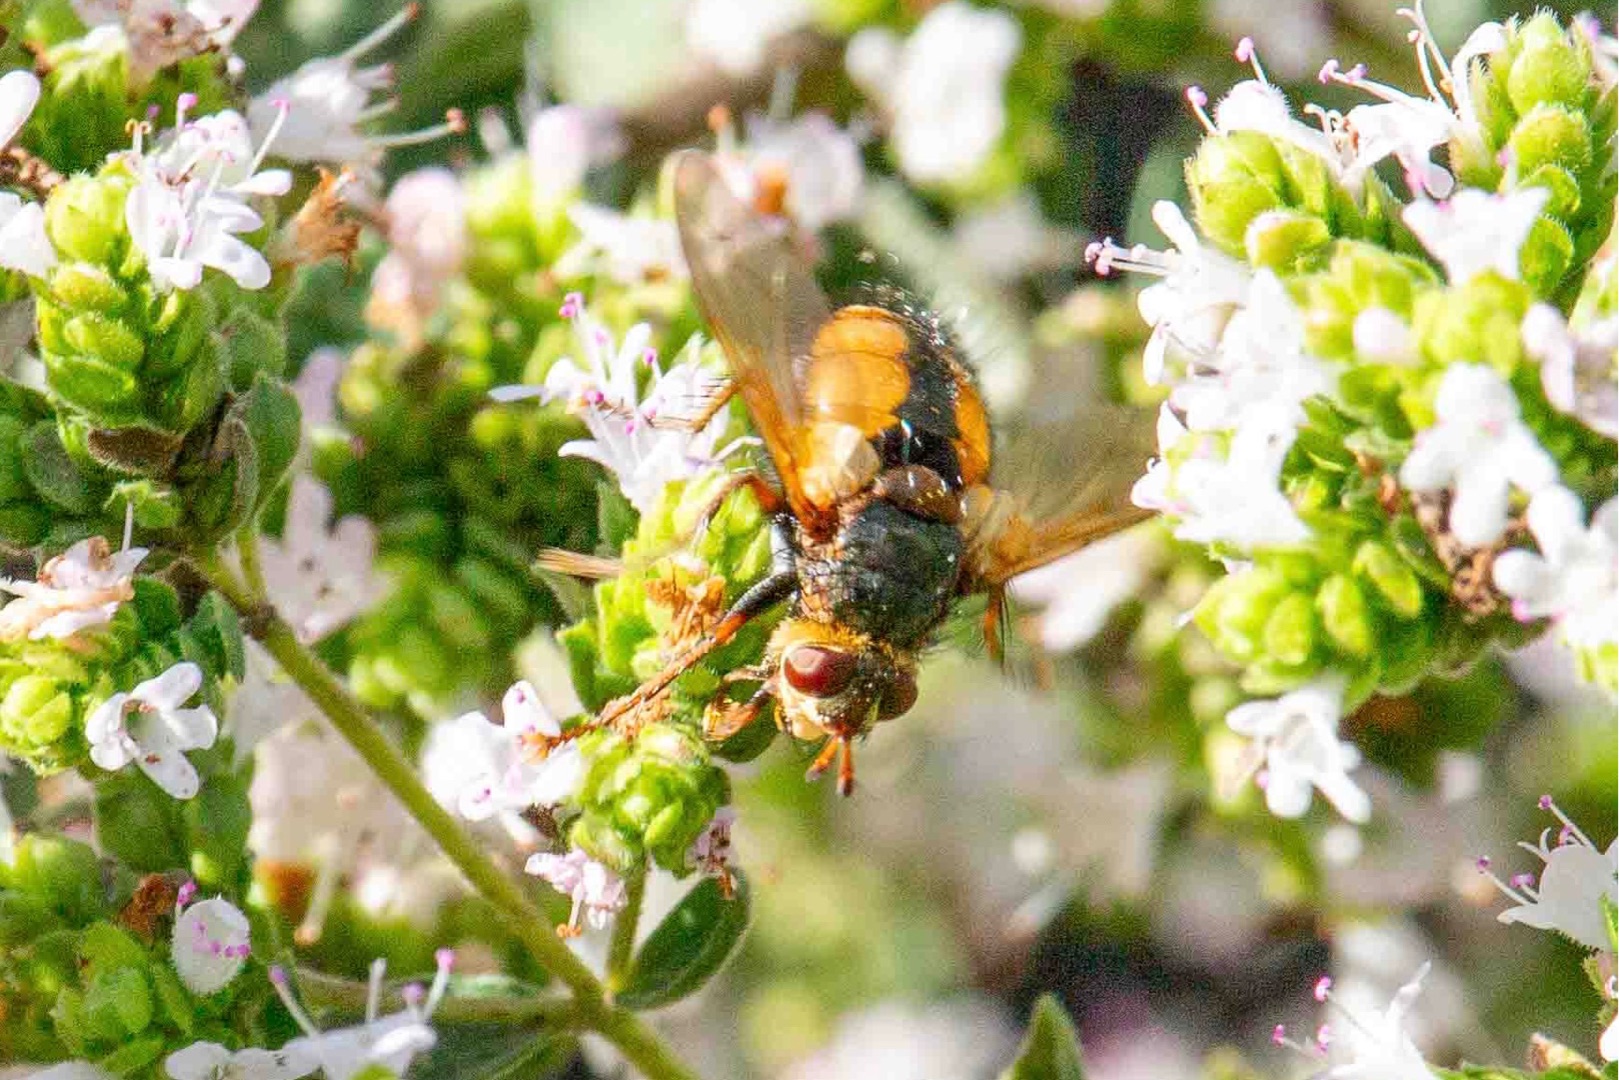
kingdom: Animalia
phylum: Arthropoda
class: Insecta
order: Diptera
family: Tachinidae
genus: Tachina
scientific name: Tachina fera
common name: Mellemfluen oskar
